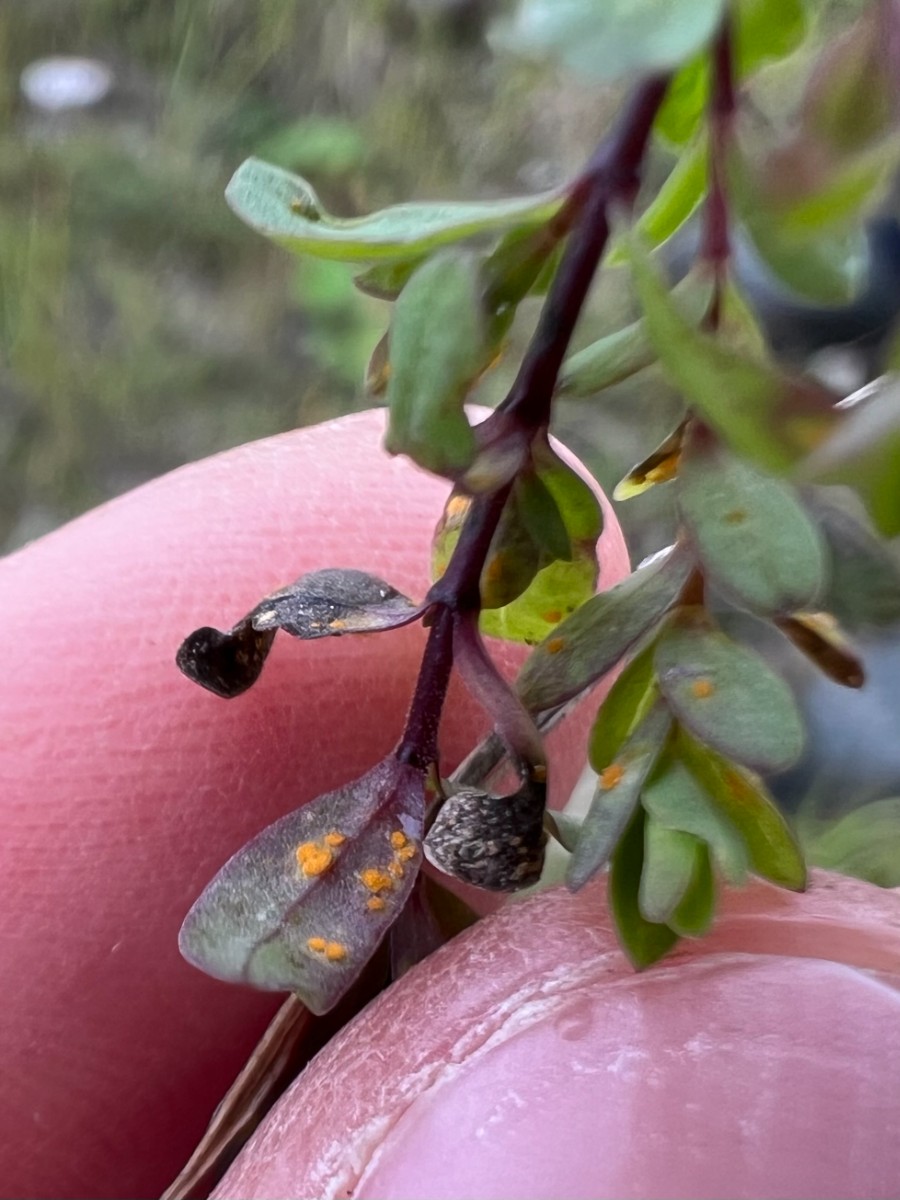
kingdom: Fungi
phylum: Basidiomycota
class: Pucciniomycetes
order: Pucciniales
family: Melampsoraceae
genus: Melampsora
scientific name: Melampsora lini
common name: hør-skorperust
